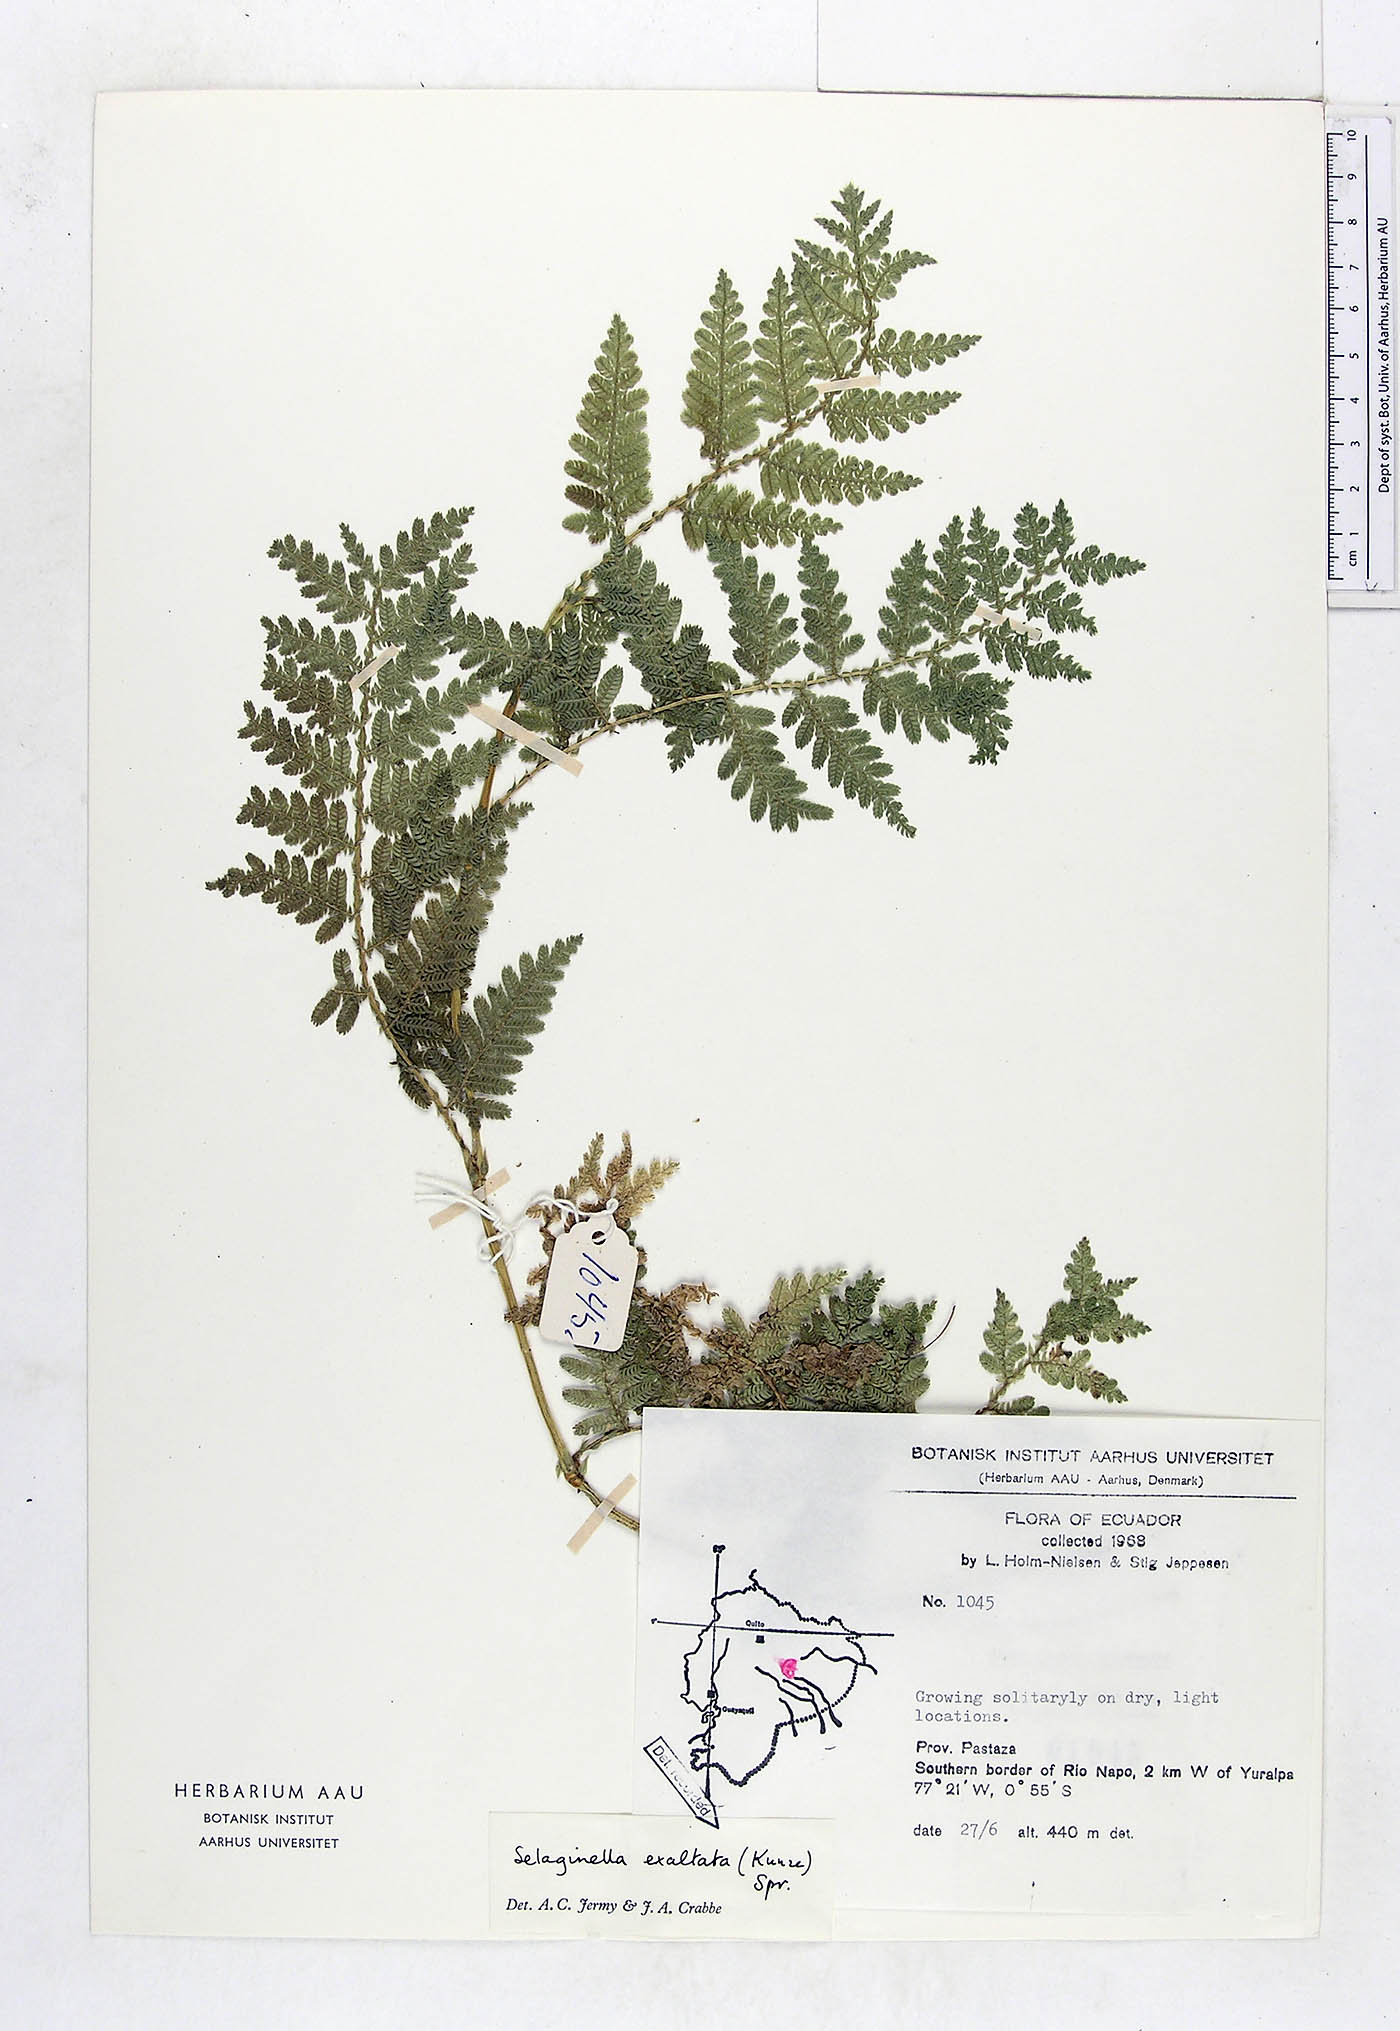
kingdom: Plantae
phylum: Tracheophyta
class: Lycopodiopsida
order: Selaginellales
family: Selaginellaceae
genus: Selaginella
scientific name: Selaginella exaltata
